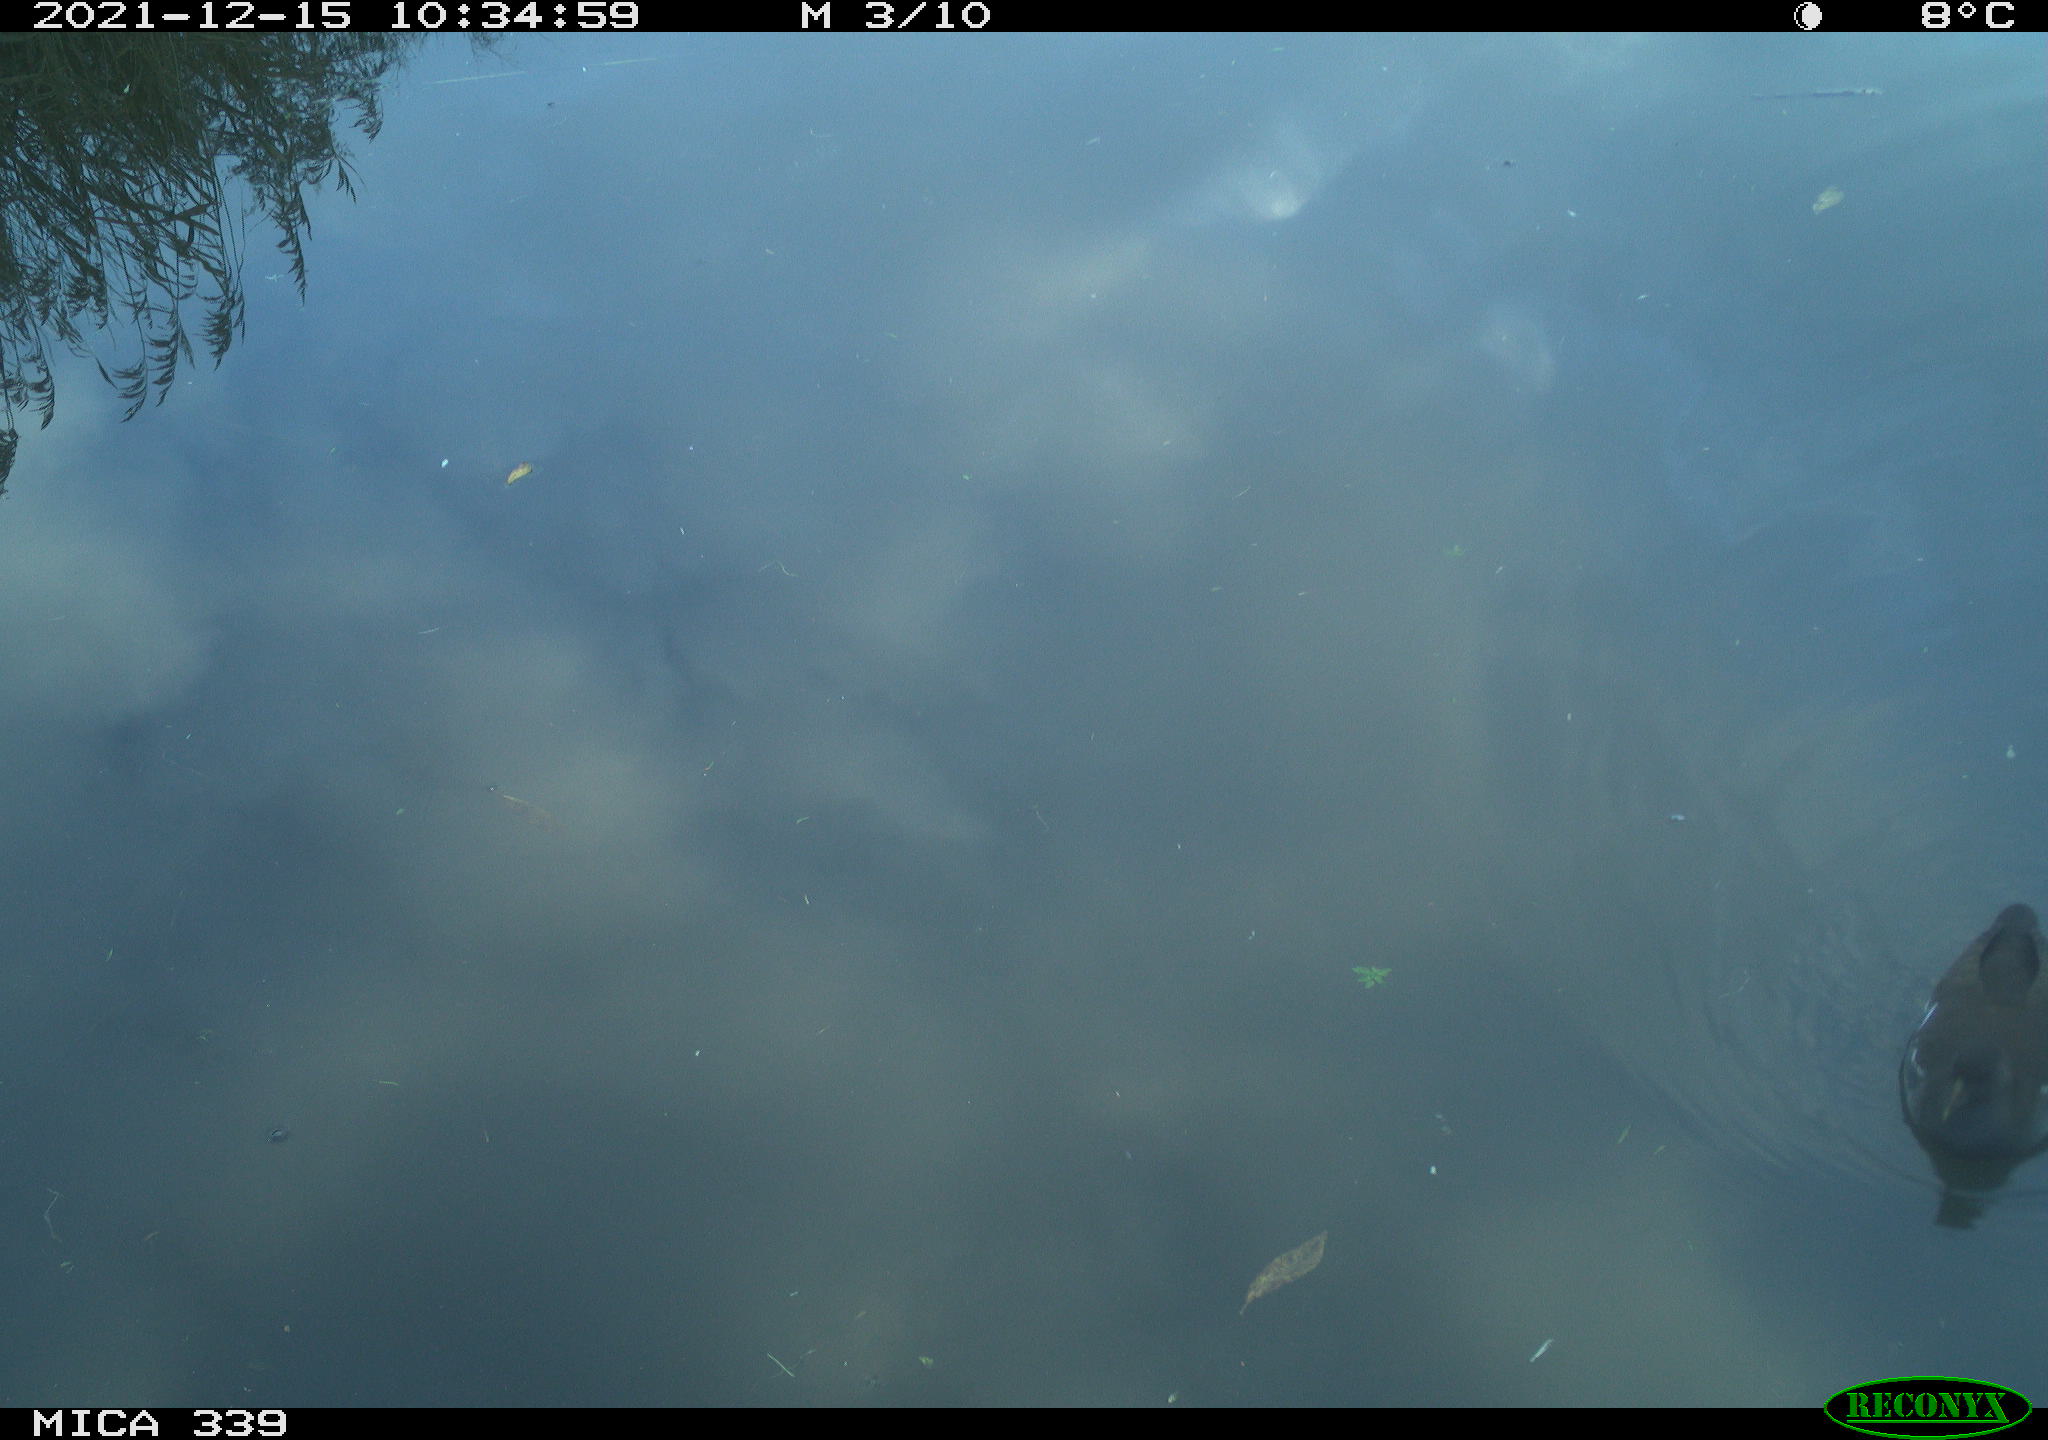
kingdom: Animalia
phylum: Chordata
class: Aves
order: Gruiformes
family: Rallidae
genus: Gallinula
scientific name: Gallinula chloropus
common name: Common moorhen
